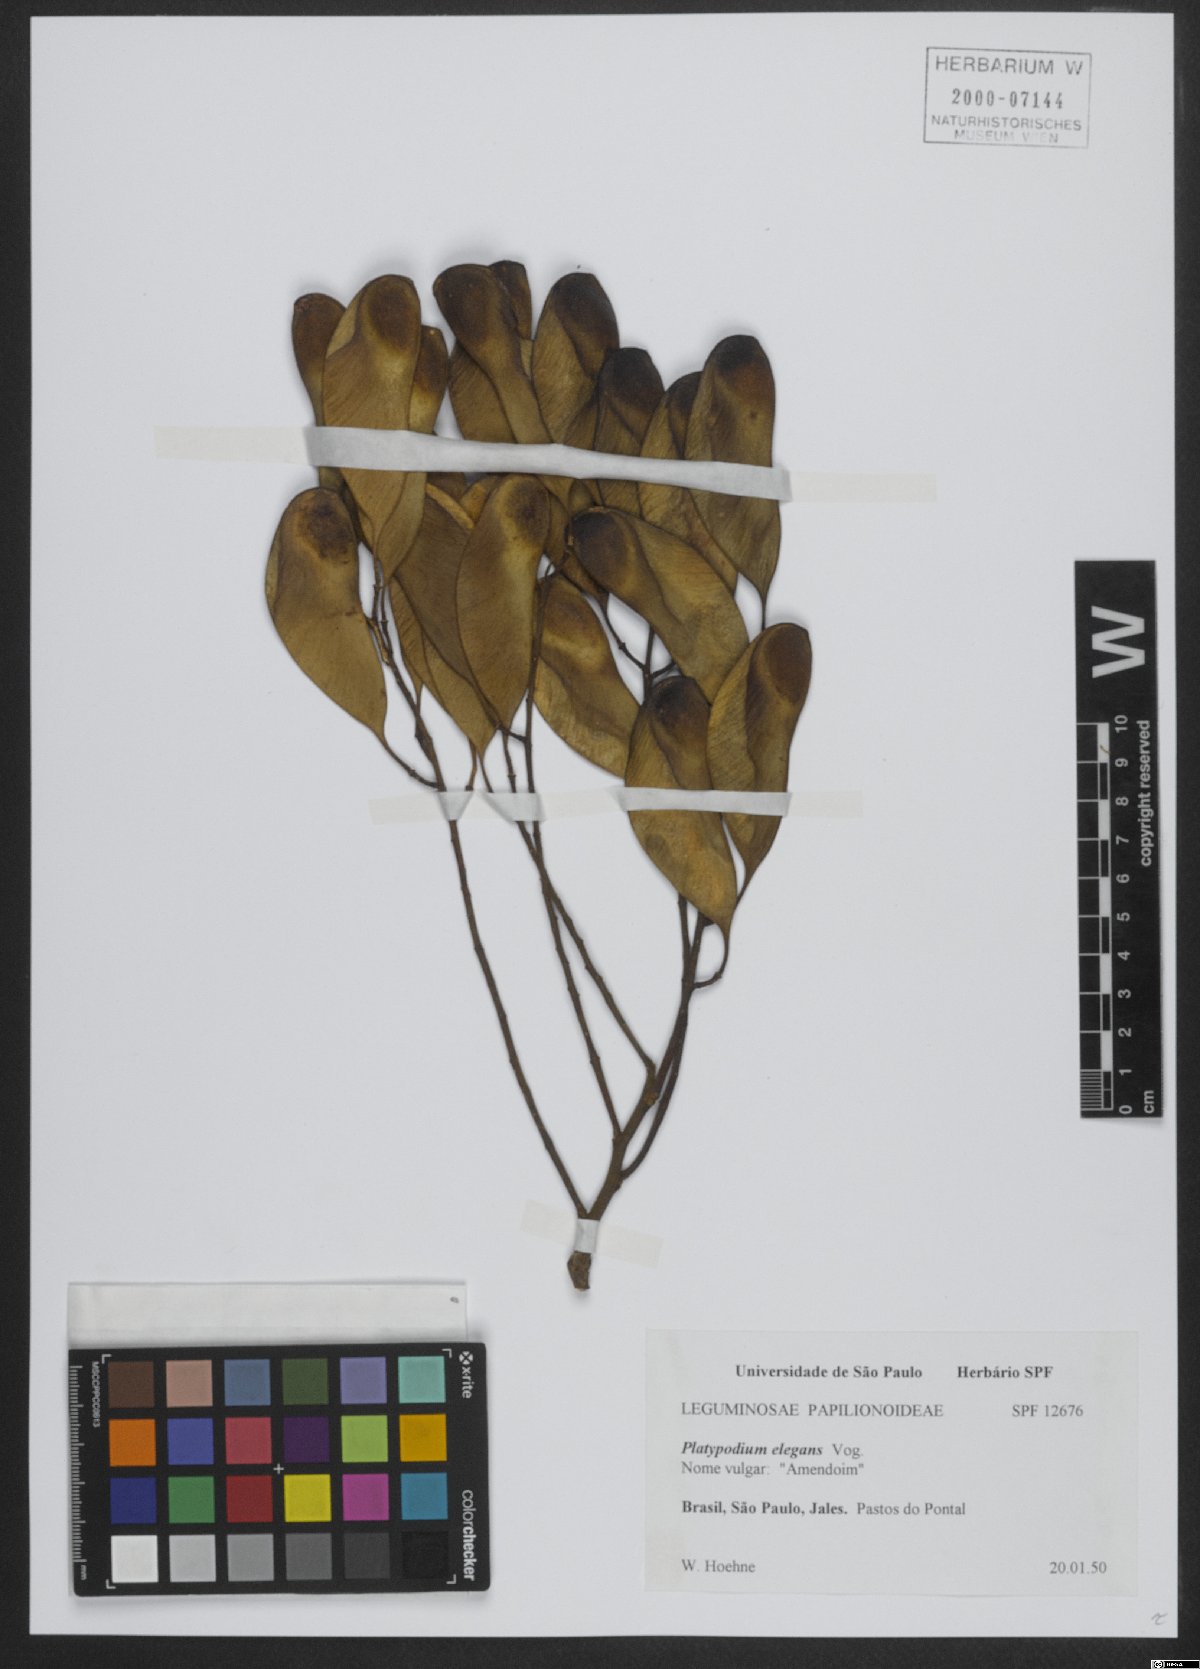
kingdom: Plantae
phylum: Tracheophyta
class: Magnoliopsida
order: Fabales
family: Fabaceae
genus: Platypodium
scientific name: Platypodium elegans
